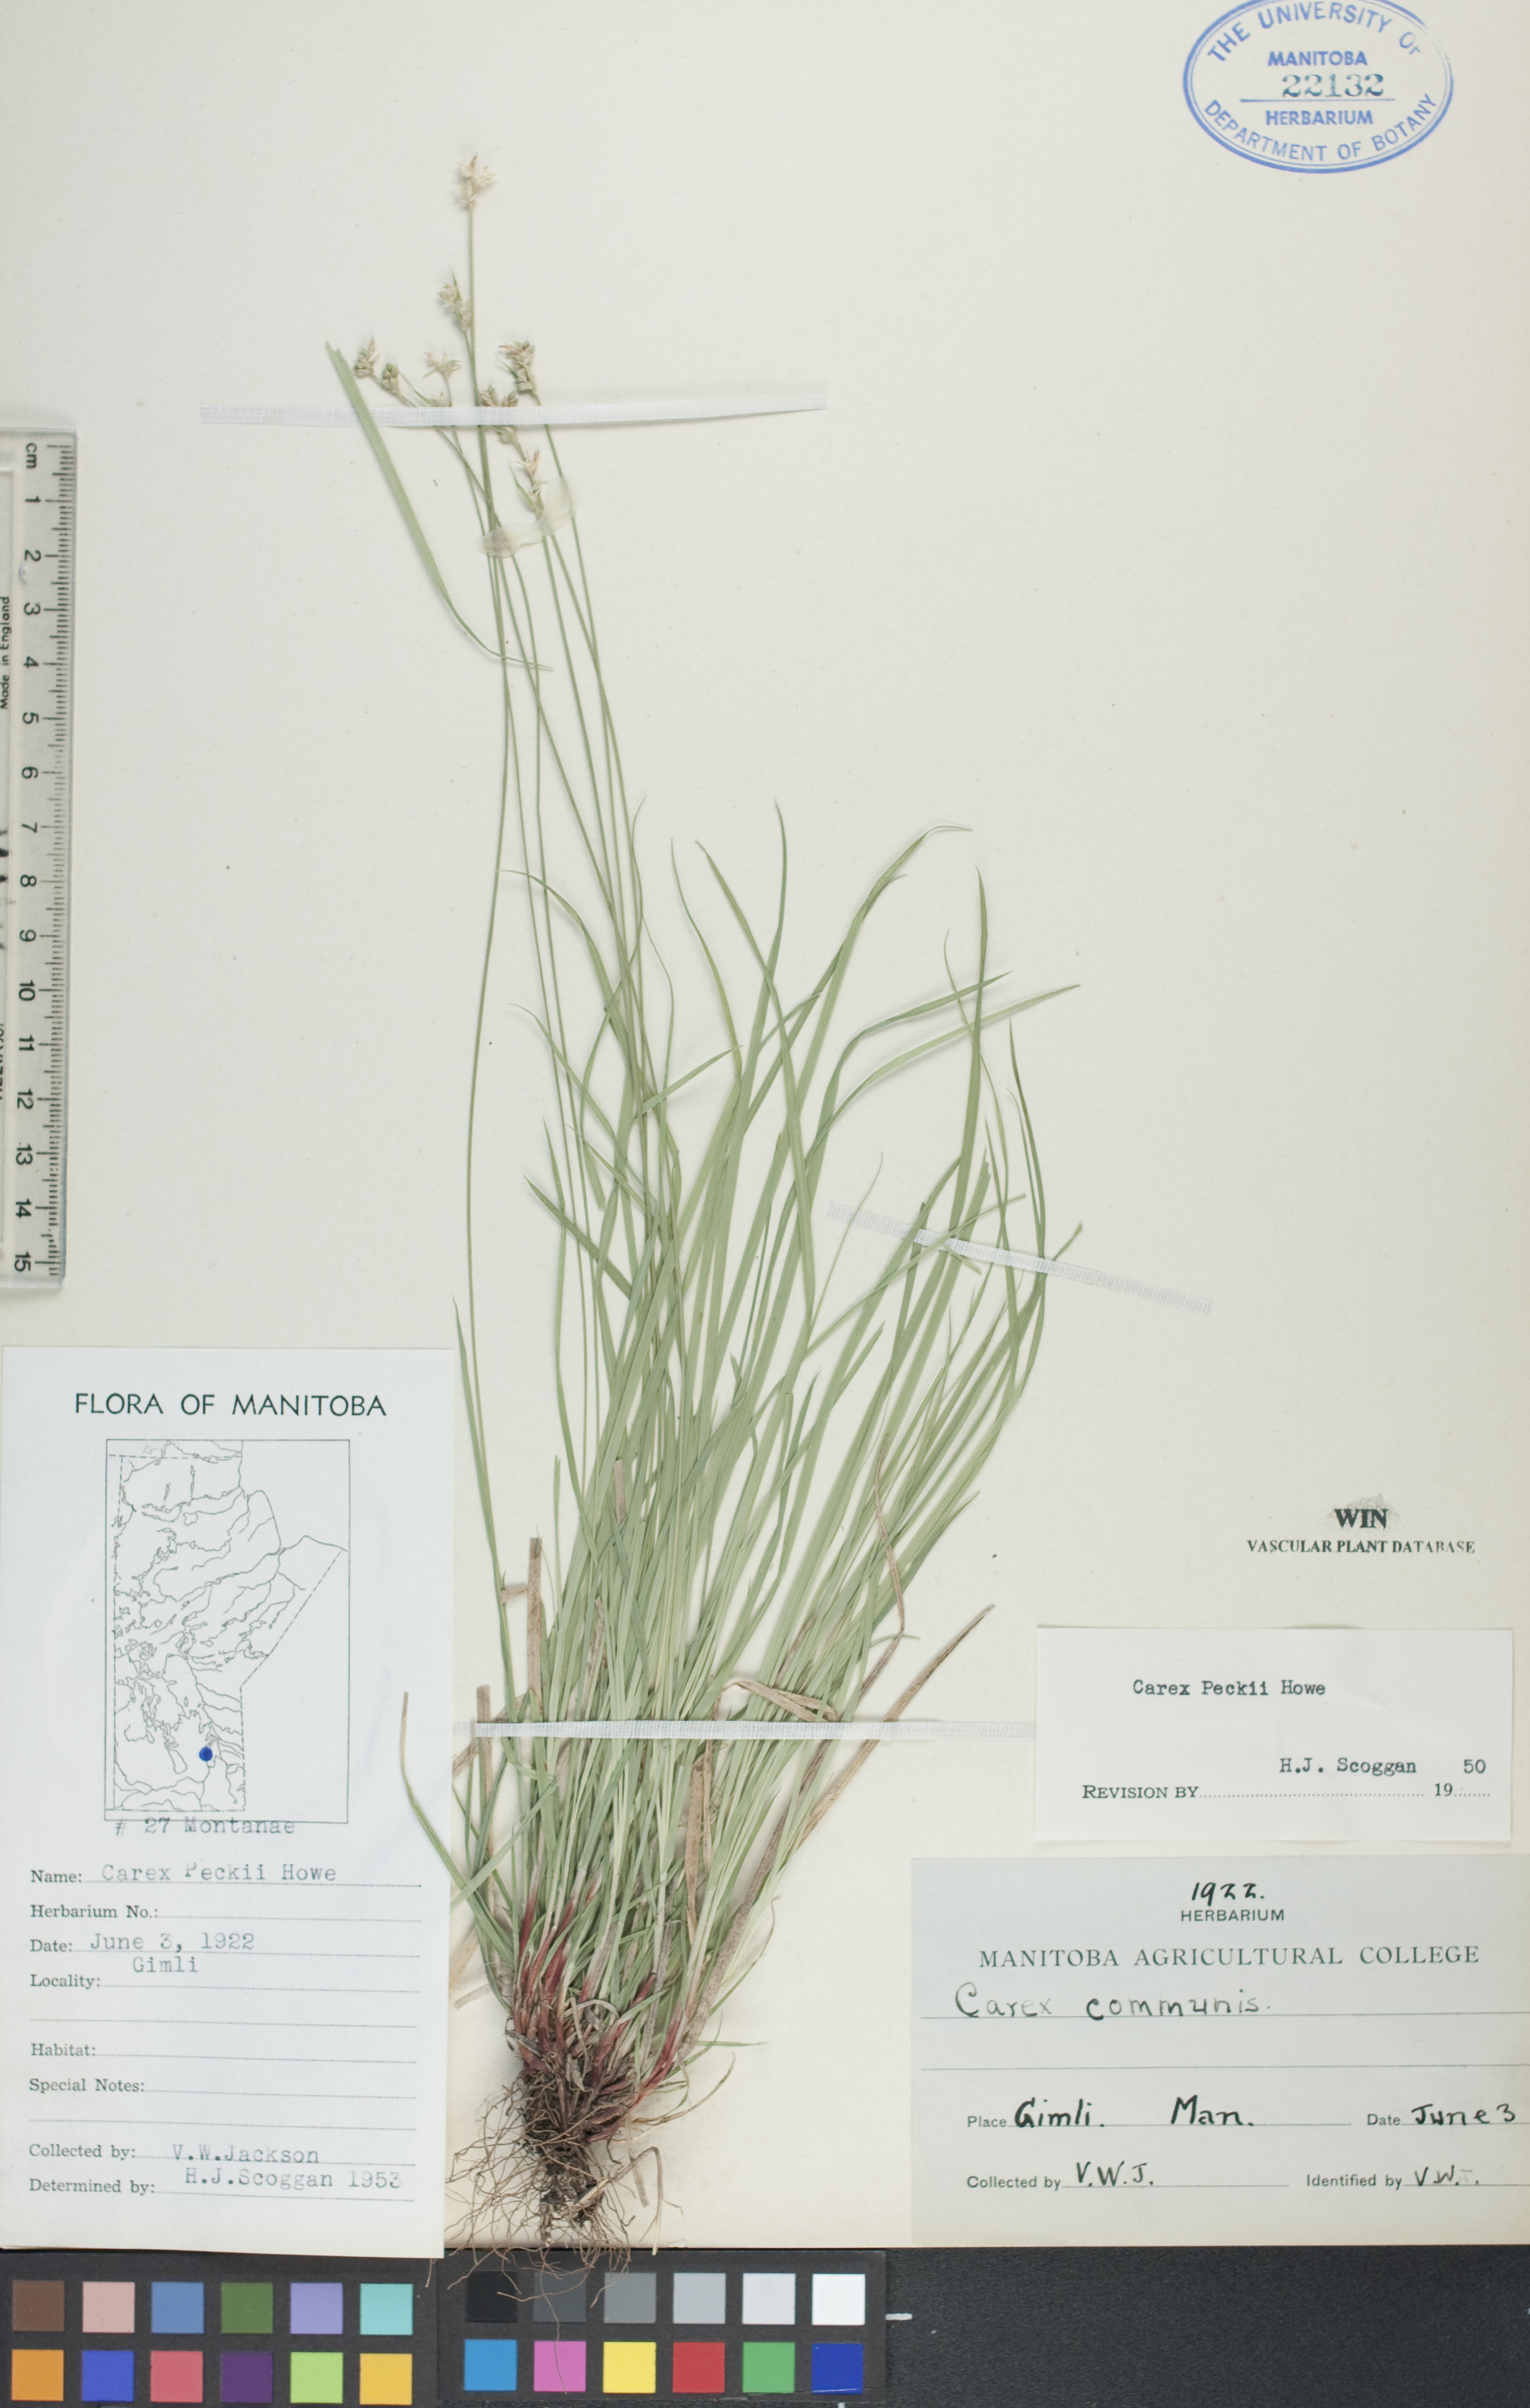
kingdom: Plantae
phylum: Tracheophyta
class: Liliopsida
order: Poales
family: Cyperaceae
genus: Carex
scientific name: Carex peckii
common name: Peck's oak sedge
